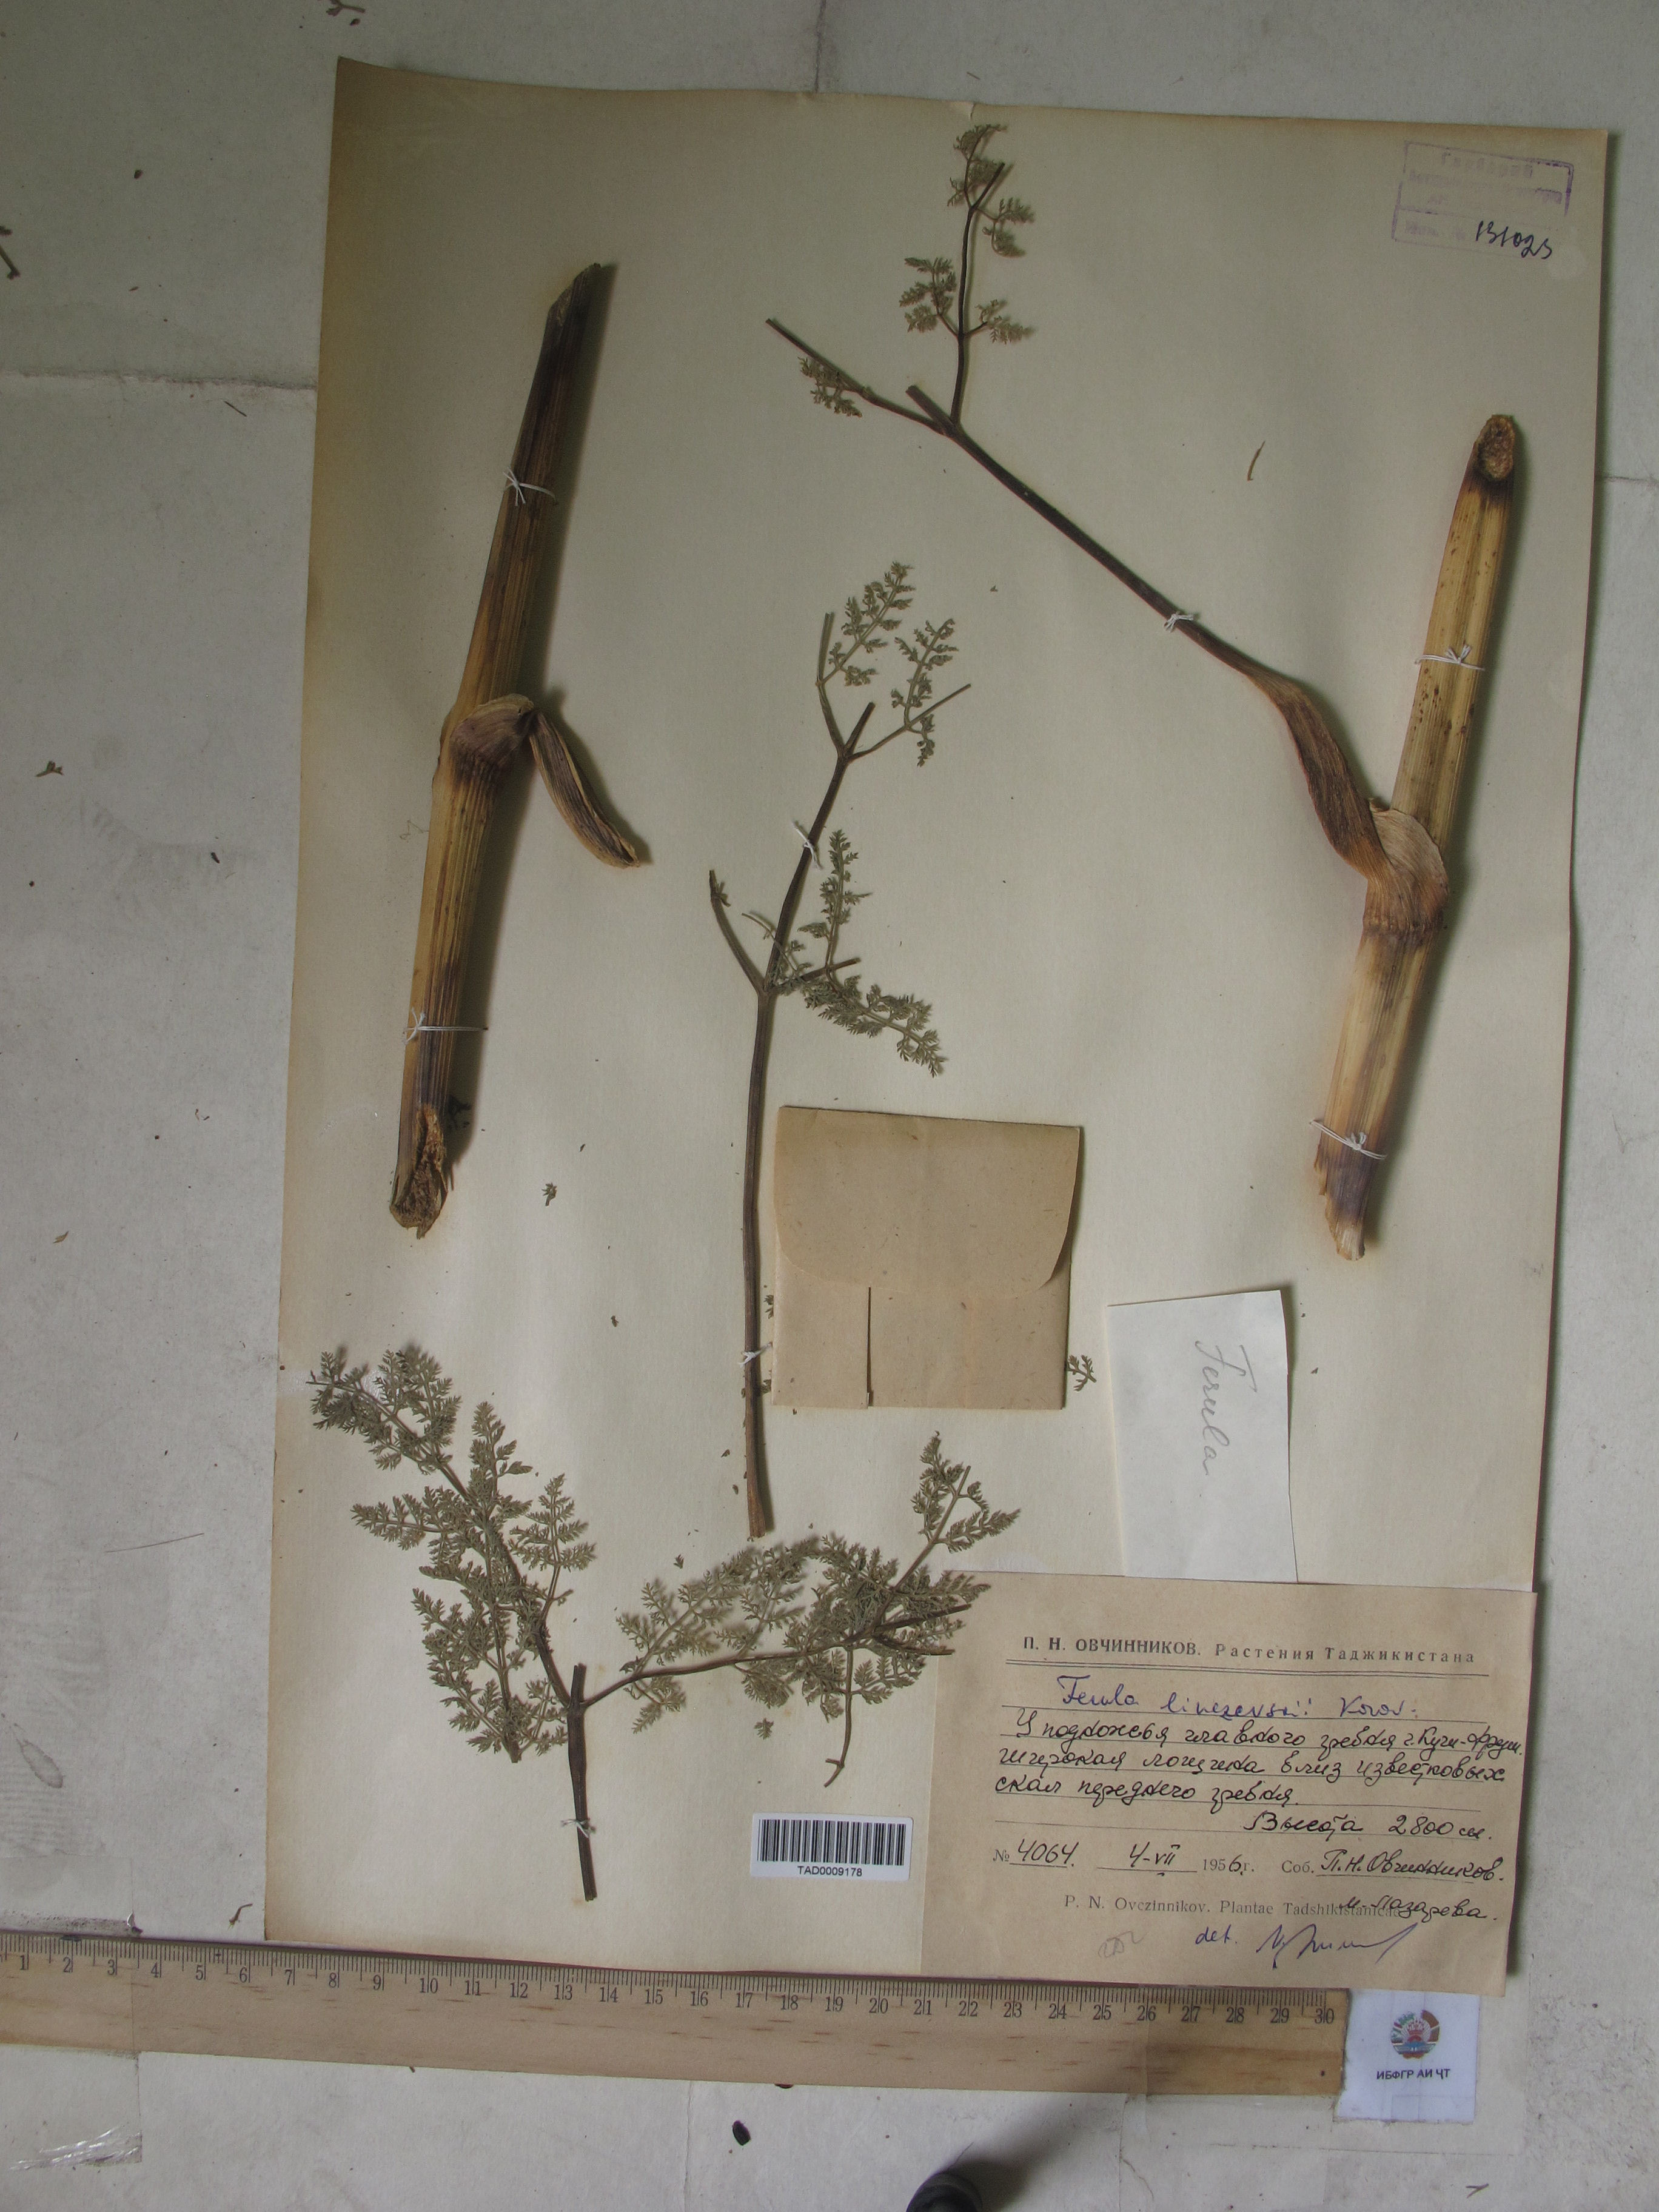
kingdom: Plantae
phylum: Tracheophyta
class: Magnoliopsida
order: Apiales
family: Apiaceae
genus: Ferula
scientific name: Ferula linczevskii
